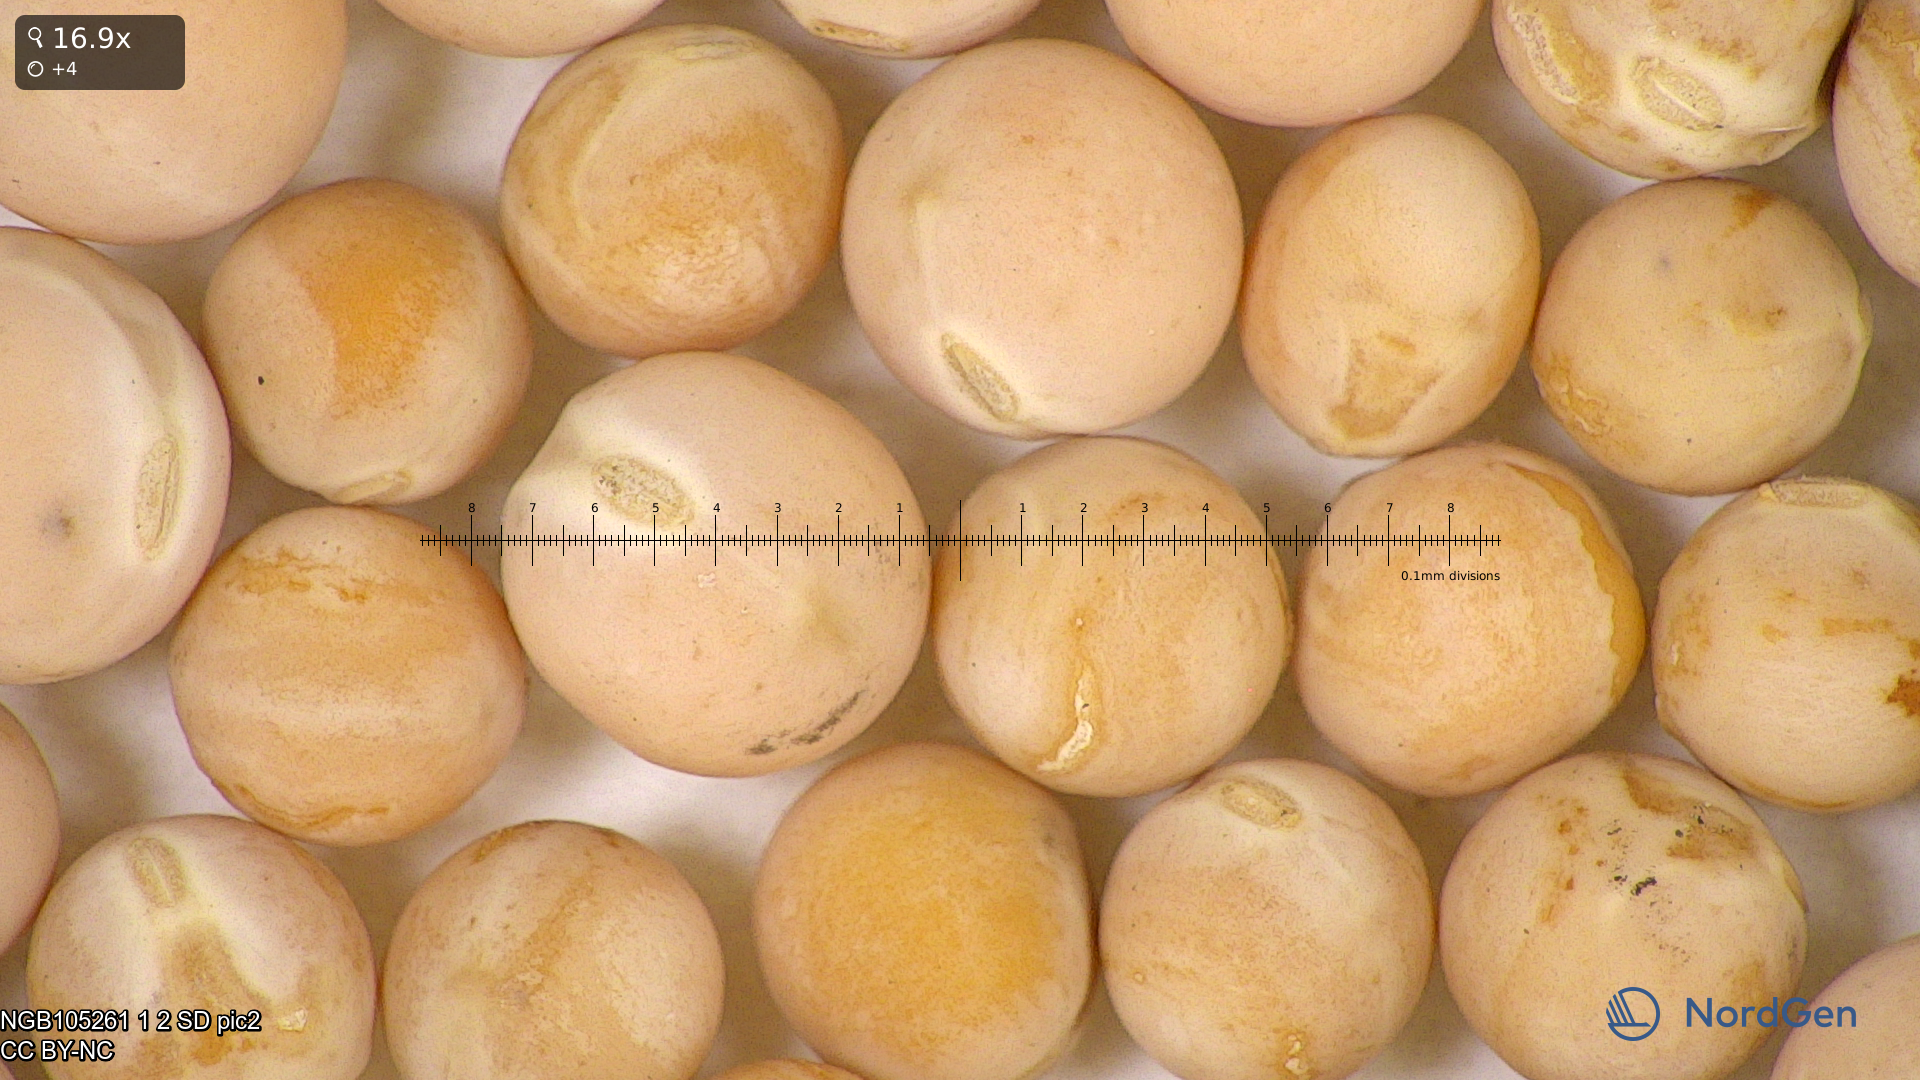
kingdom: Plantae
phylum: Tracheophyta
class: Magnoliopsida
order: Fabales
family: Fabaceae
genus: Lathyrus
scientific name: Lathyrus oleraceus
